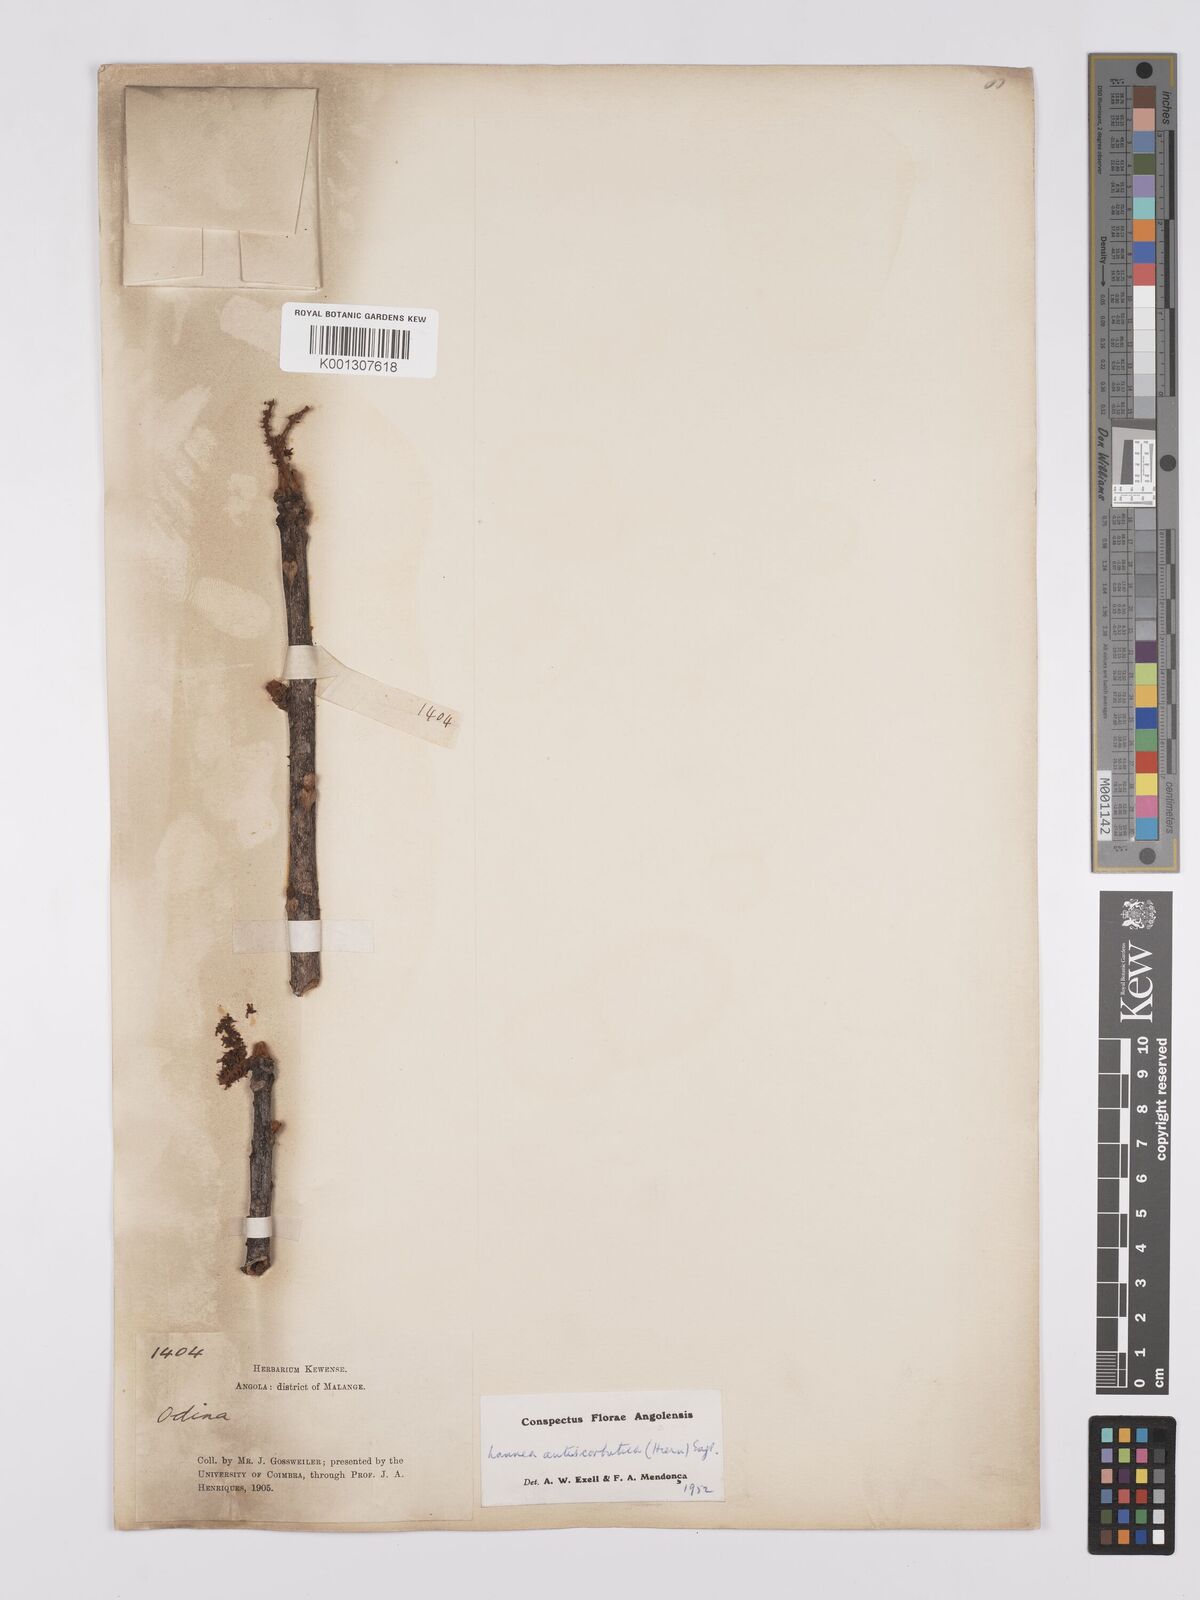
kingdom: Plantae
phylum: Tracheophyta
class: Magnoliopsida
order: Sapindales
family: Anacardiaceae
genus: Lannea
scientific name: Lannea antiscorbutica
